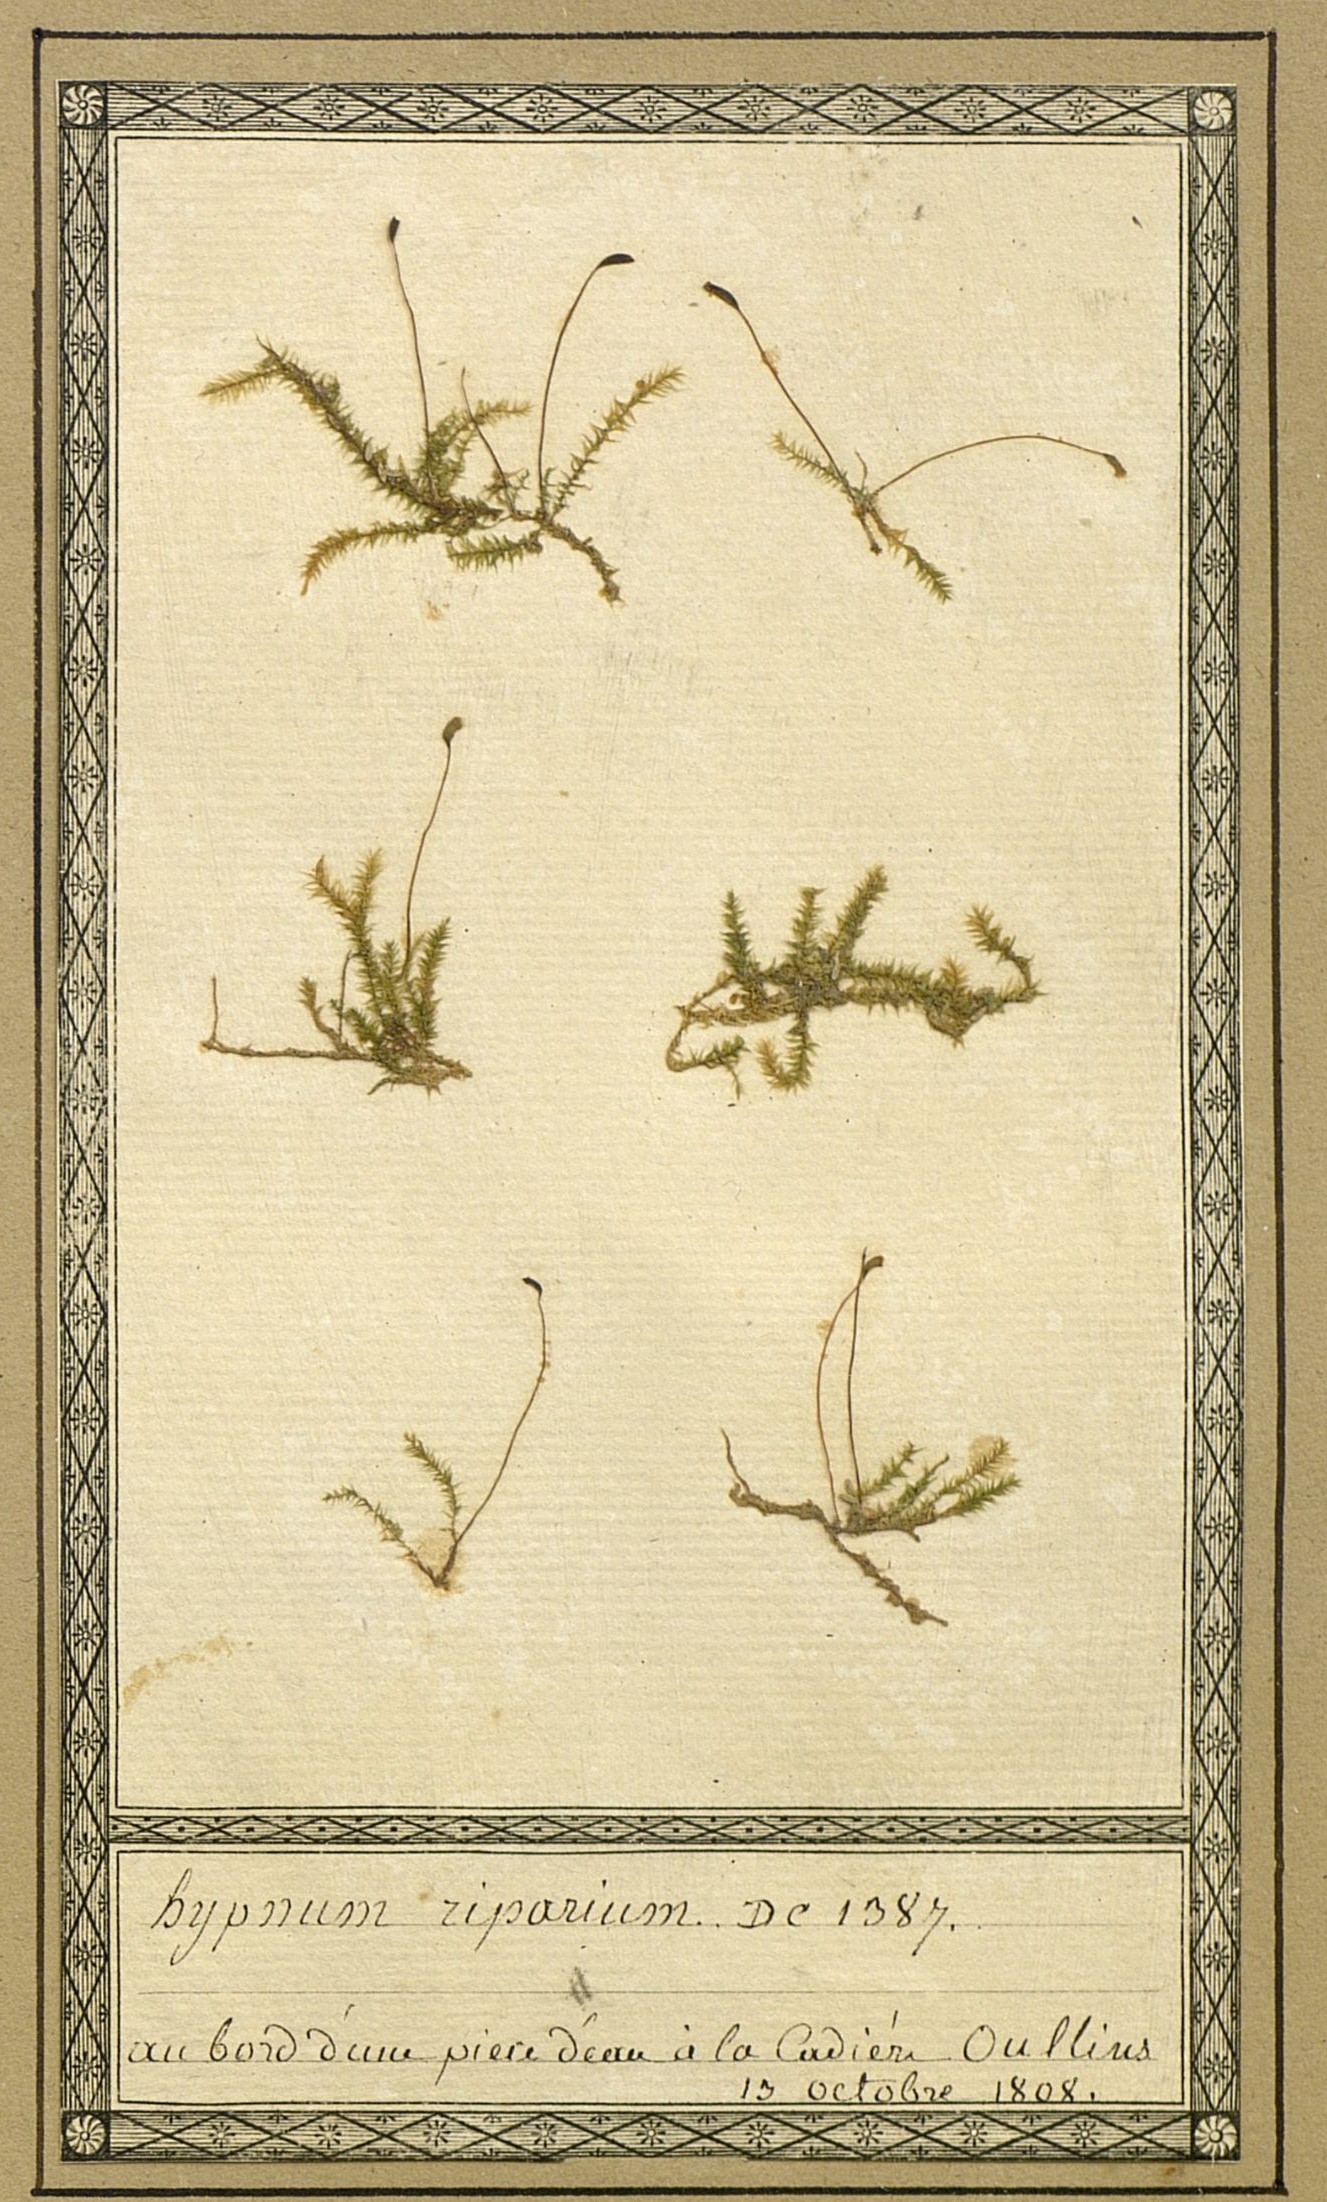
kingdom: Plantae
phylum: Bryophyta
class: Bryopsida
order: Hypnales
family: Amblystegiaceae
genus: Leptodictyum
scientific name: Leptodictyum riparium
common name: Riparian feather moss
